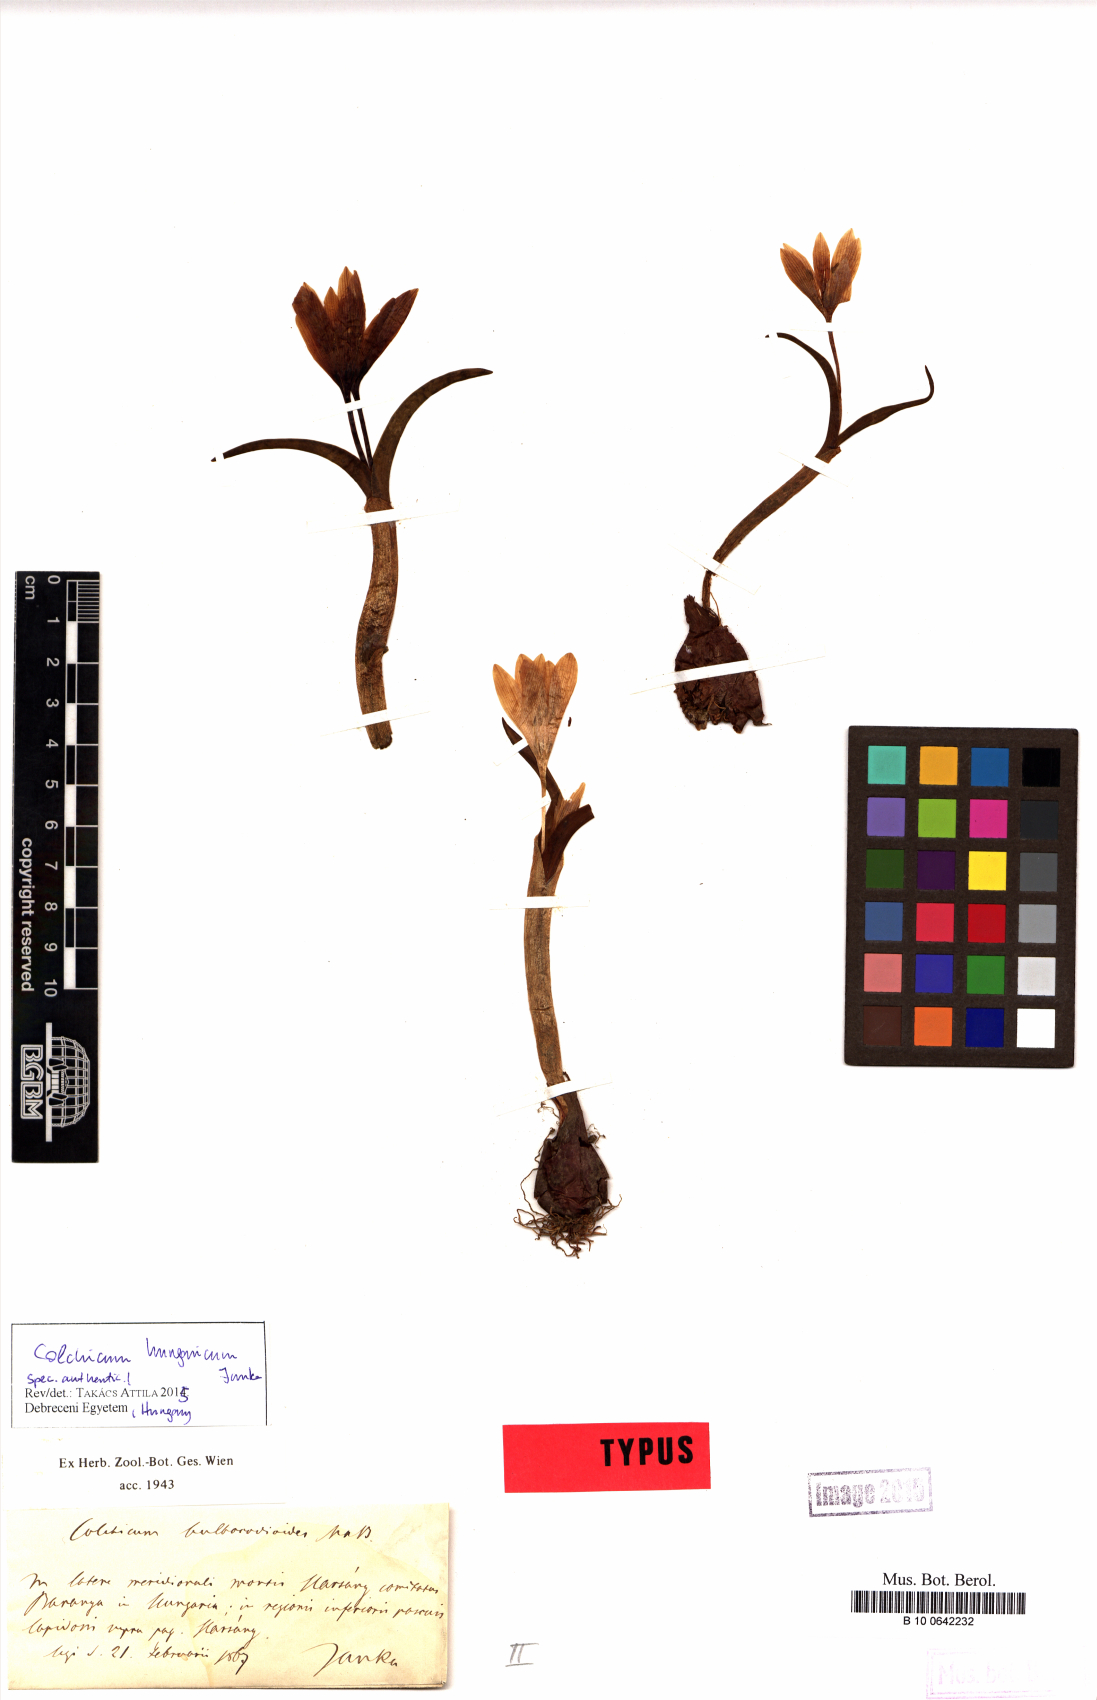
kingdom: Plantae
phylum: Tracheophyta
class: Liliopsida
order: Liliales
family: Colchicaceae
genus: Colchicum
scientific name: Colchicum hungaricum
